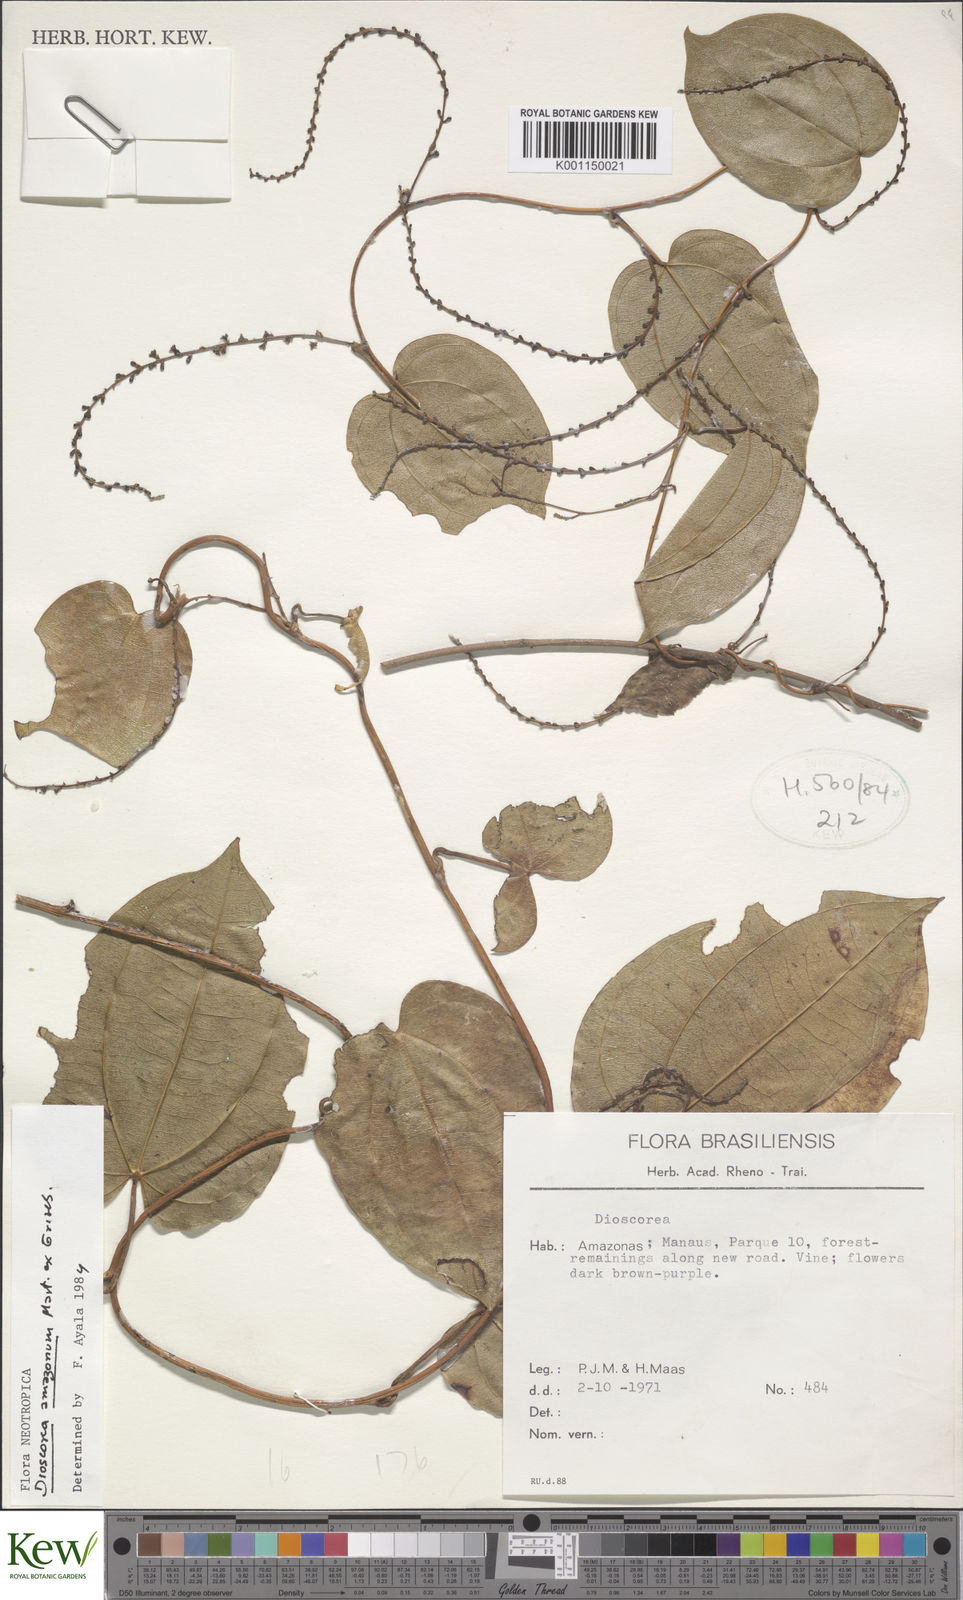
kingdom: Plantae
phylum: Tracheophyta
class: Liliopsida
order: Dioscoreales
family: Dioscoreaceae
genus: Dioscorea
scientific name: Dioscorea amazonum
